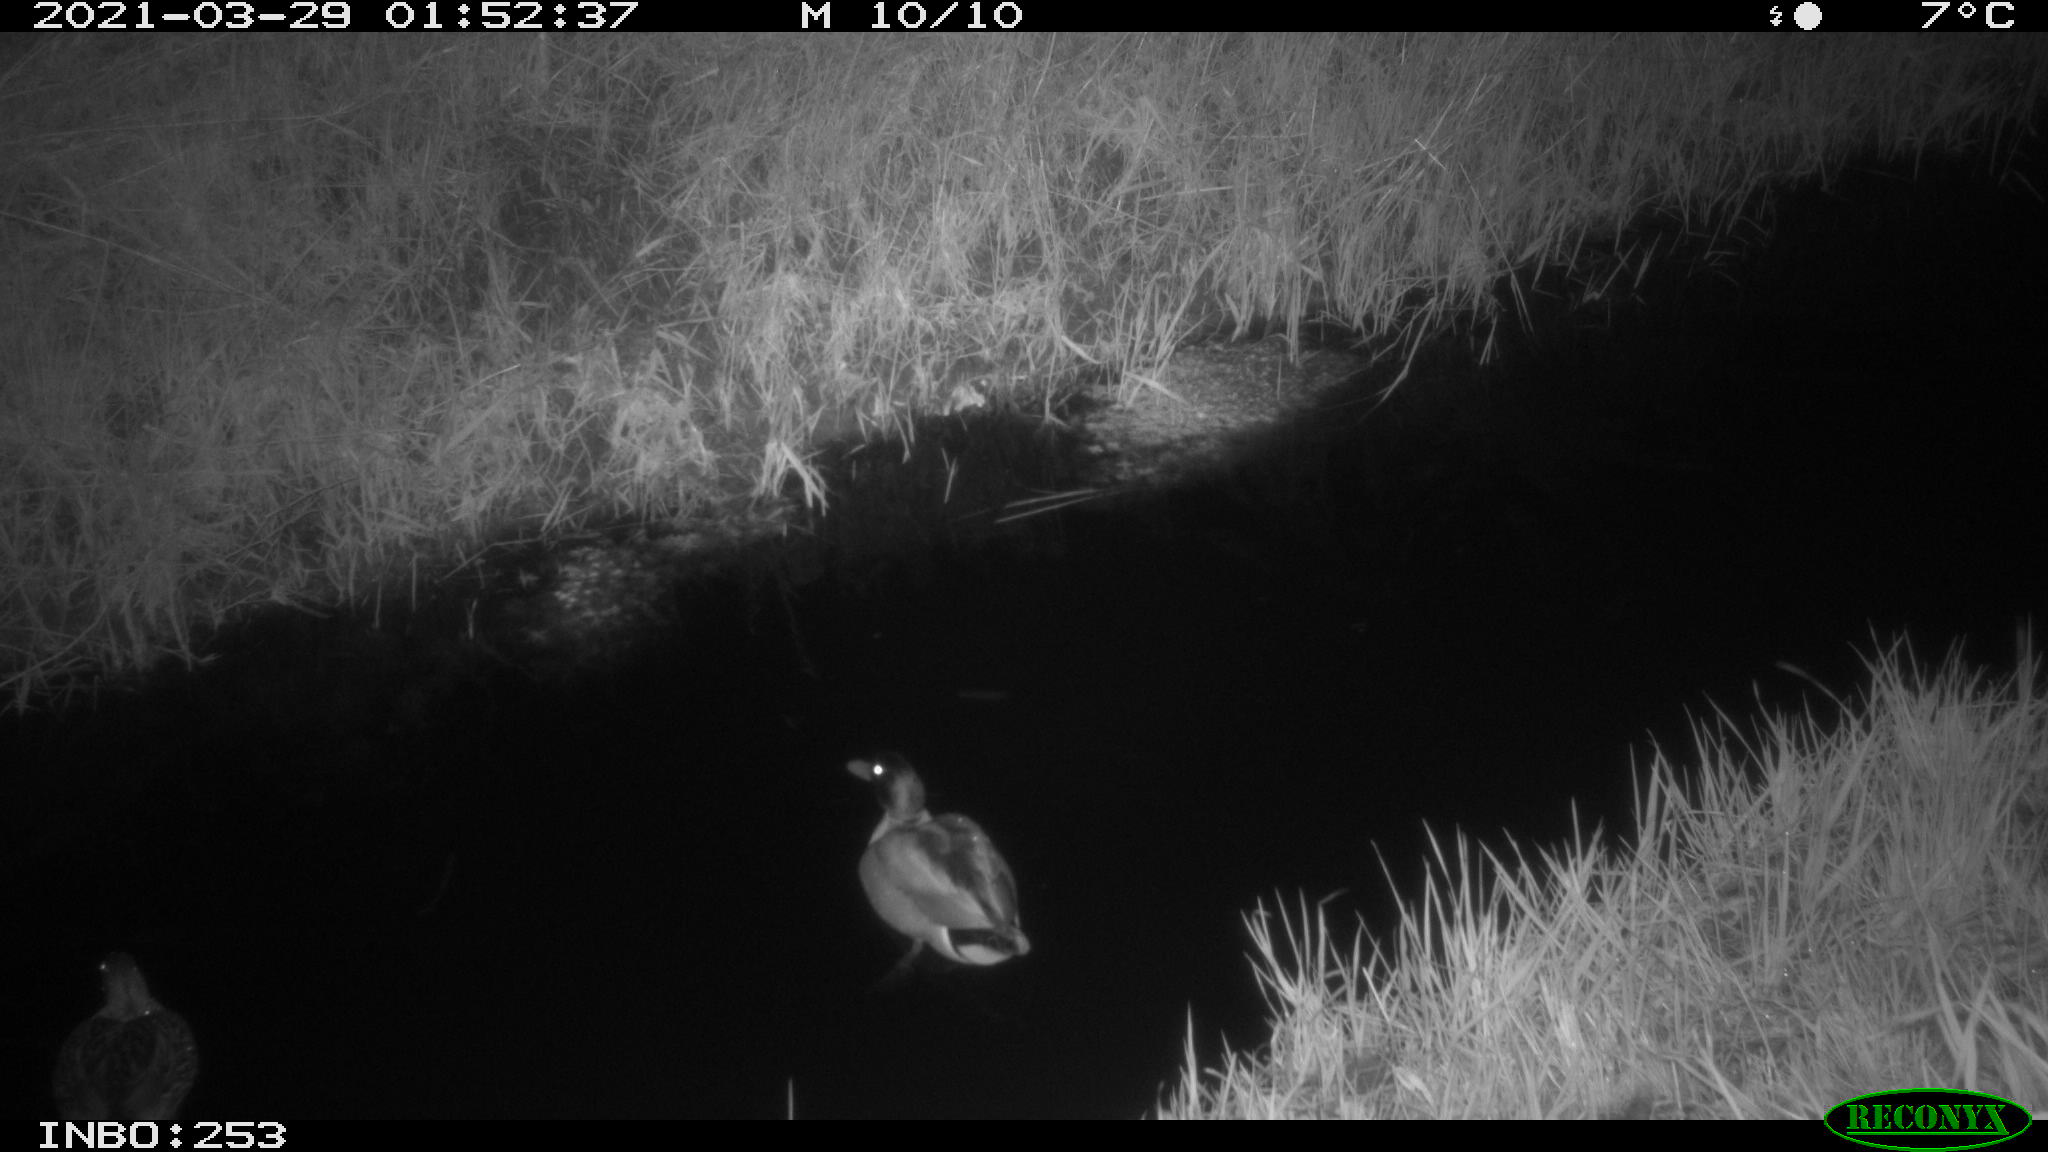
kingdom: Animalia
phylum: Chordata
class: Aves
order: Anseriformes
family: Anatidae
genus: Anas
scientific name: Anas platyrhynchos
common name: Mallard
